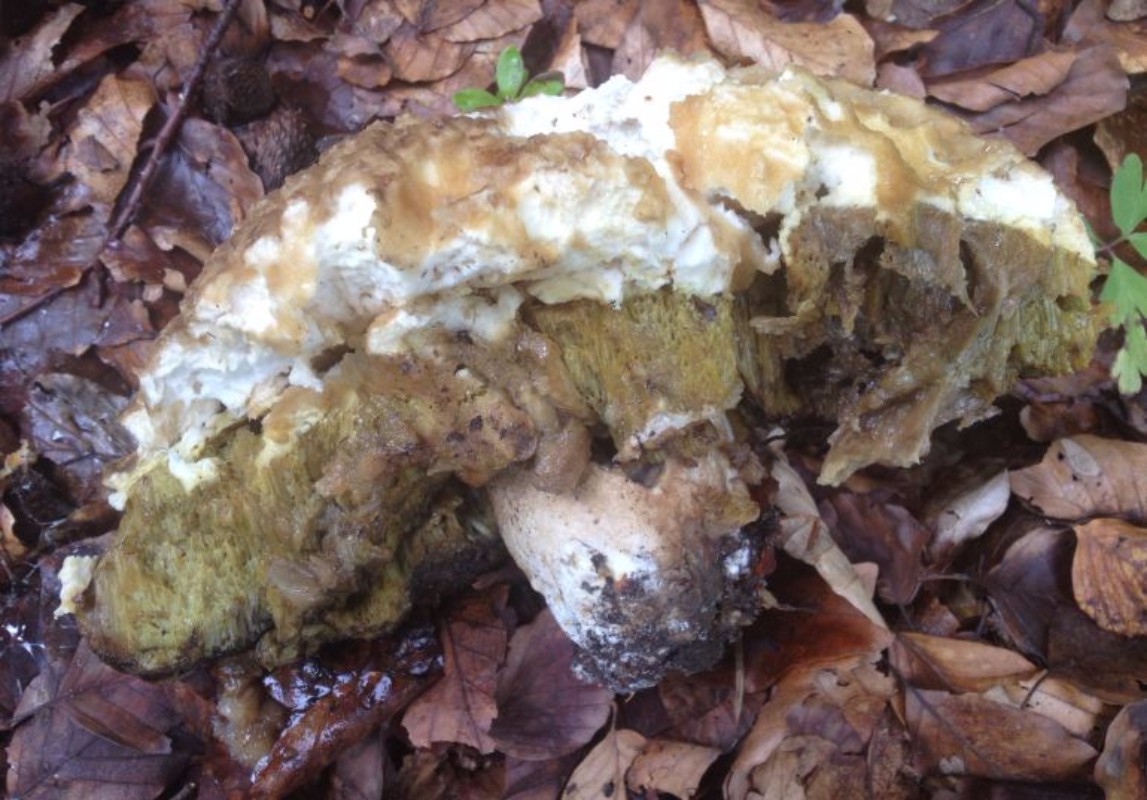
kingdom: Fungi
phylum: Basidiomycota
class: Agaricomycetes
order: Boletales
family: Boletaceae
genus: Boletus
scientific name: Boletus reticulatus
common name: sommer-rørhat
